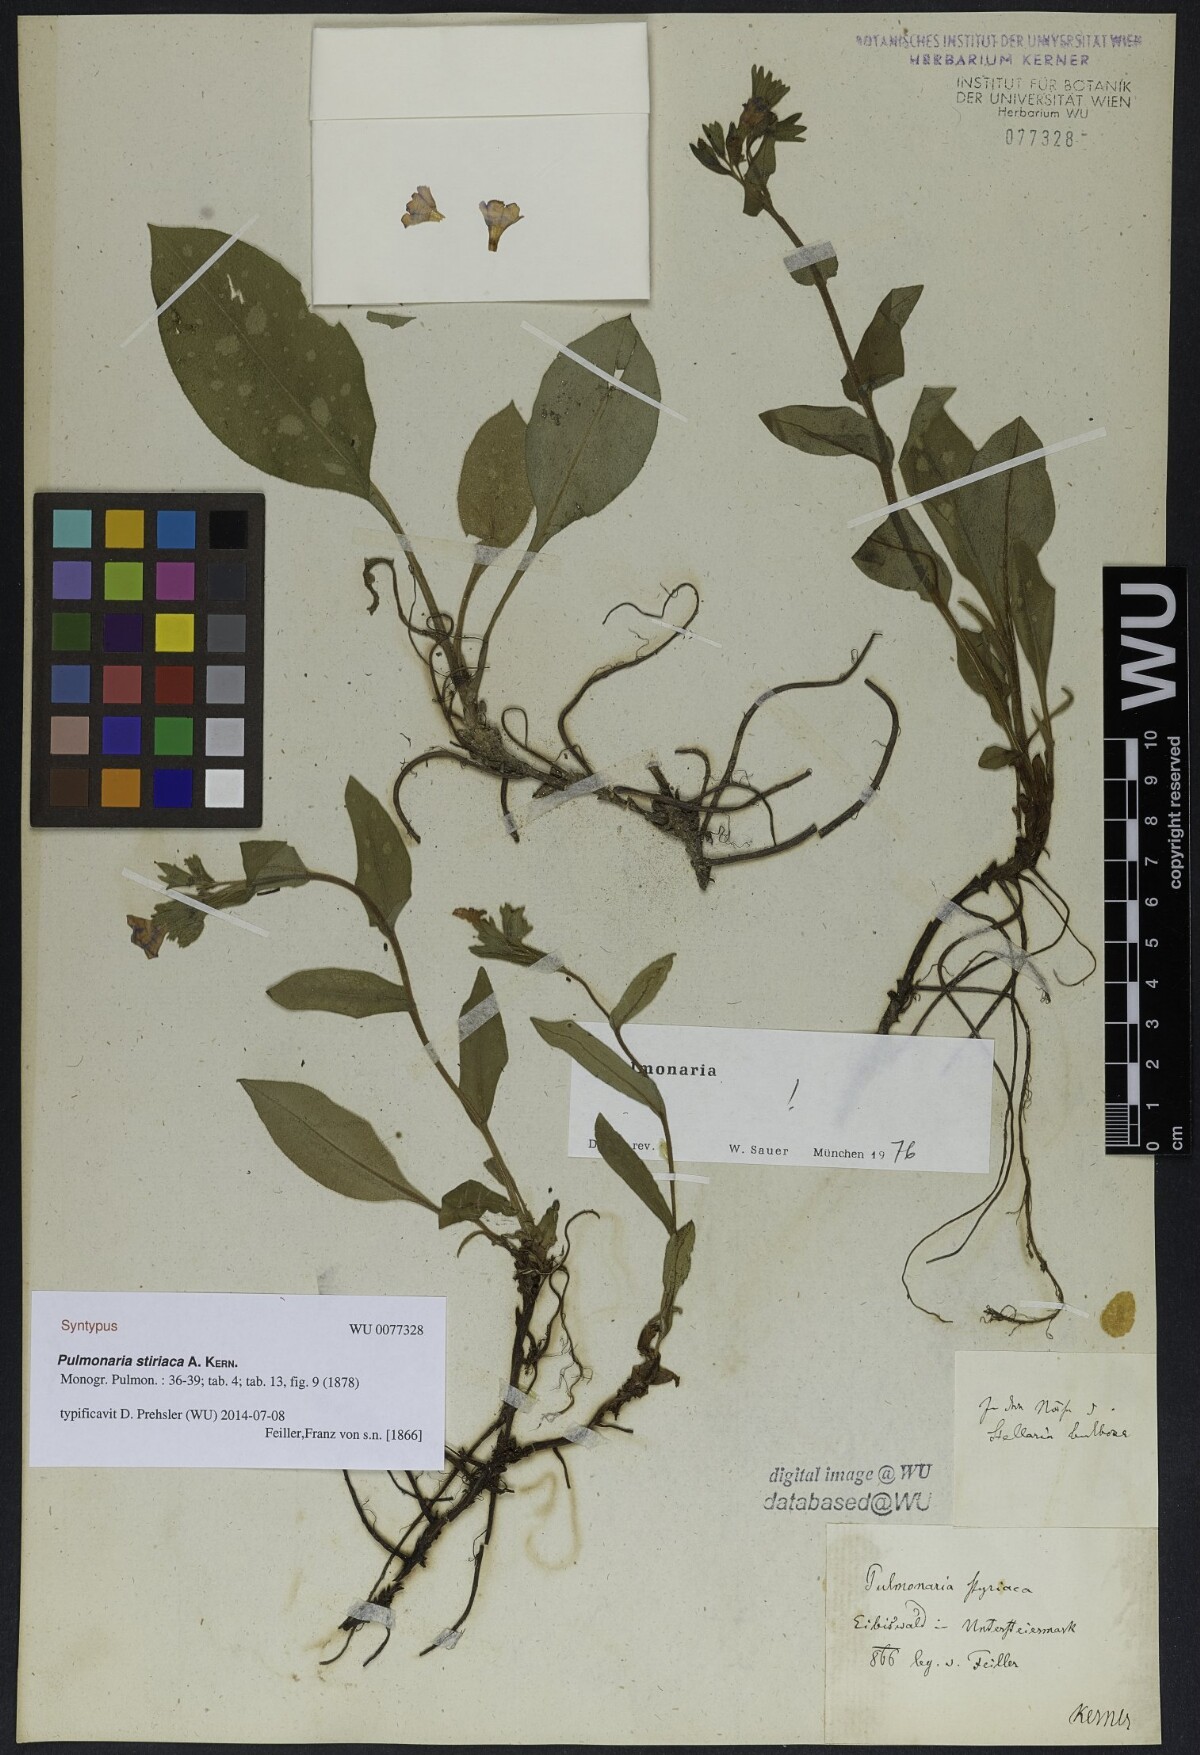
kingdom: Plantae
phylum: Tracheophyta
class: Magnoliopsida
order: Boraginales
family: Boraginaceae
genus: Pulmonaria
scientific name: Pulmonaria stiriaca
